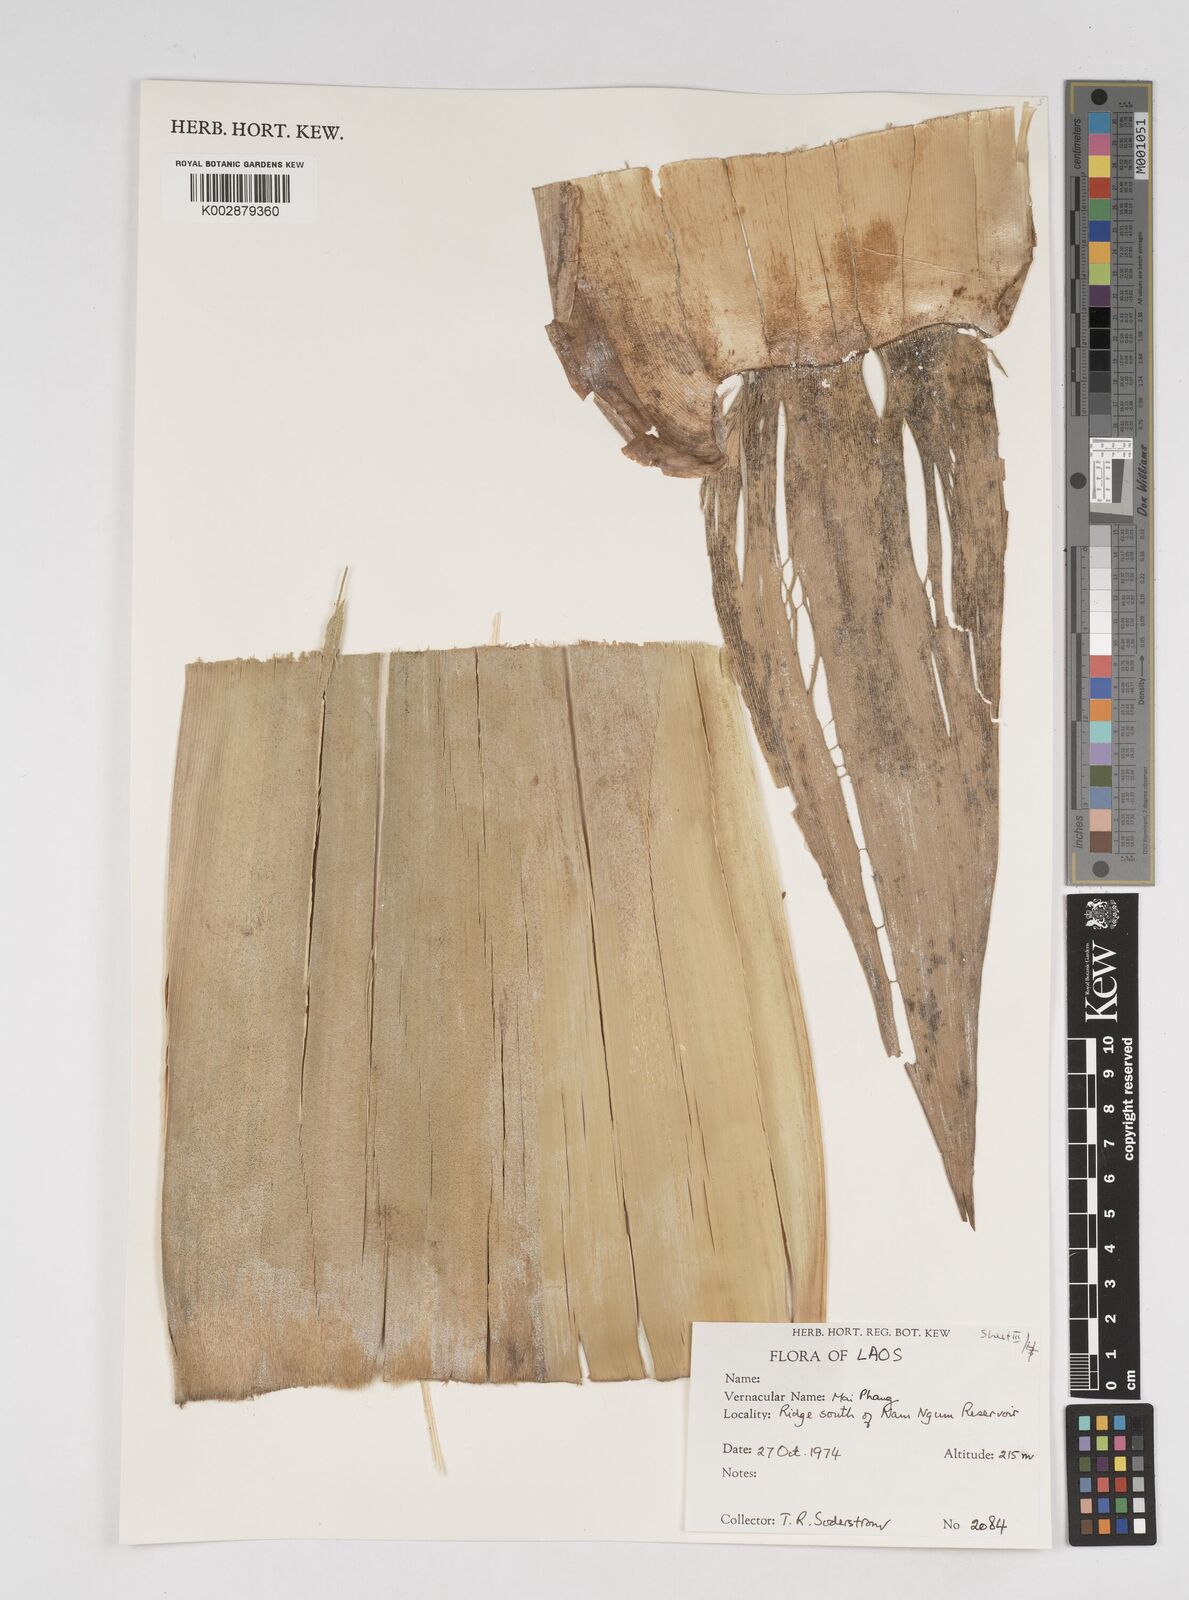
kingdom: Plantae
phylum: Tracheophyta
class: Liliopsida
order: Poales
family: Poaceae
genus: Dendrocalamus
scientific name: Dendrocalamus
